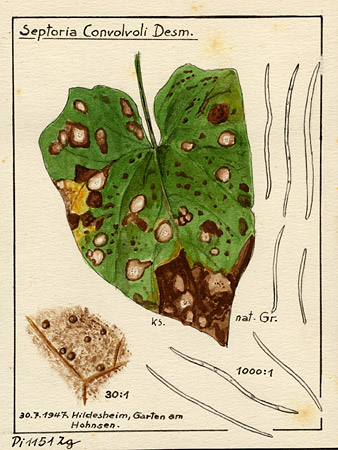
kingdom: Fungi
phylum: Ascomycota
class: Dothideomycetes
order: Mycosphaerellales
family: Mycosphaerellaceae
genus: Septoria
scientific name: Septoria convolvuli
